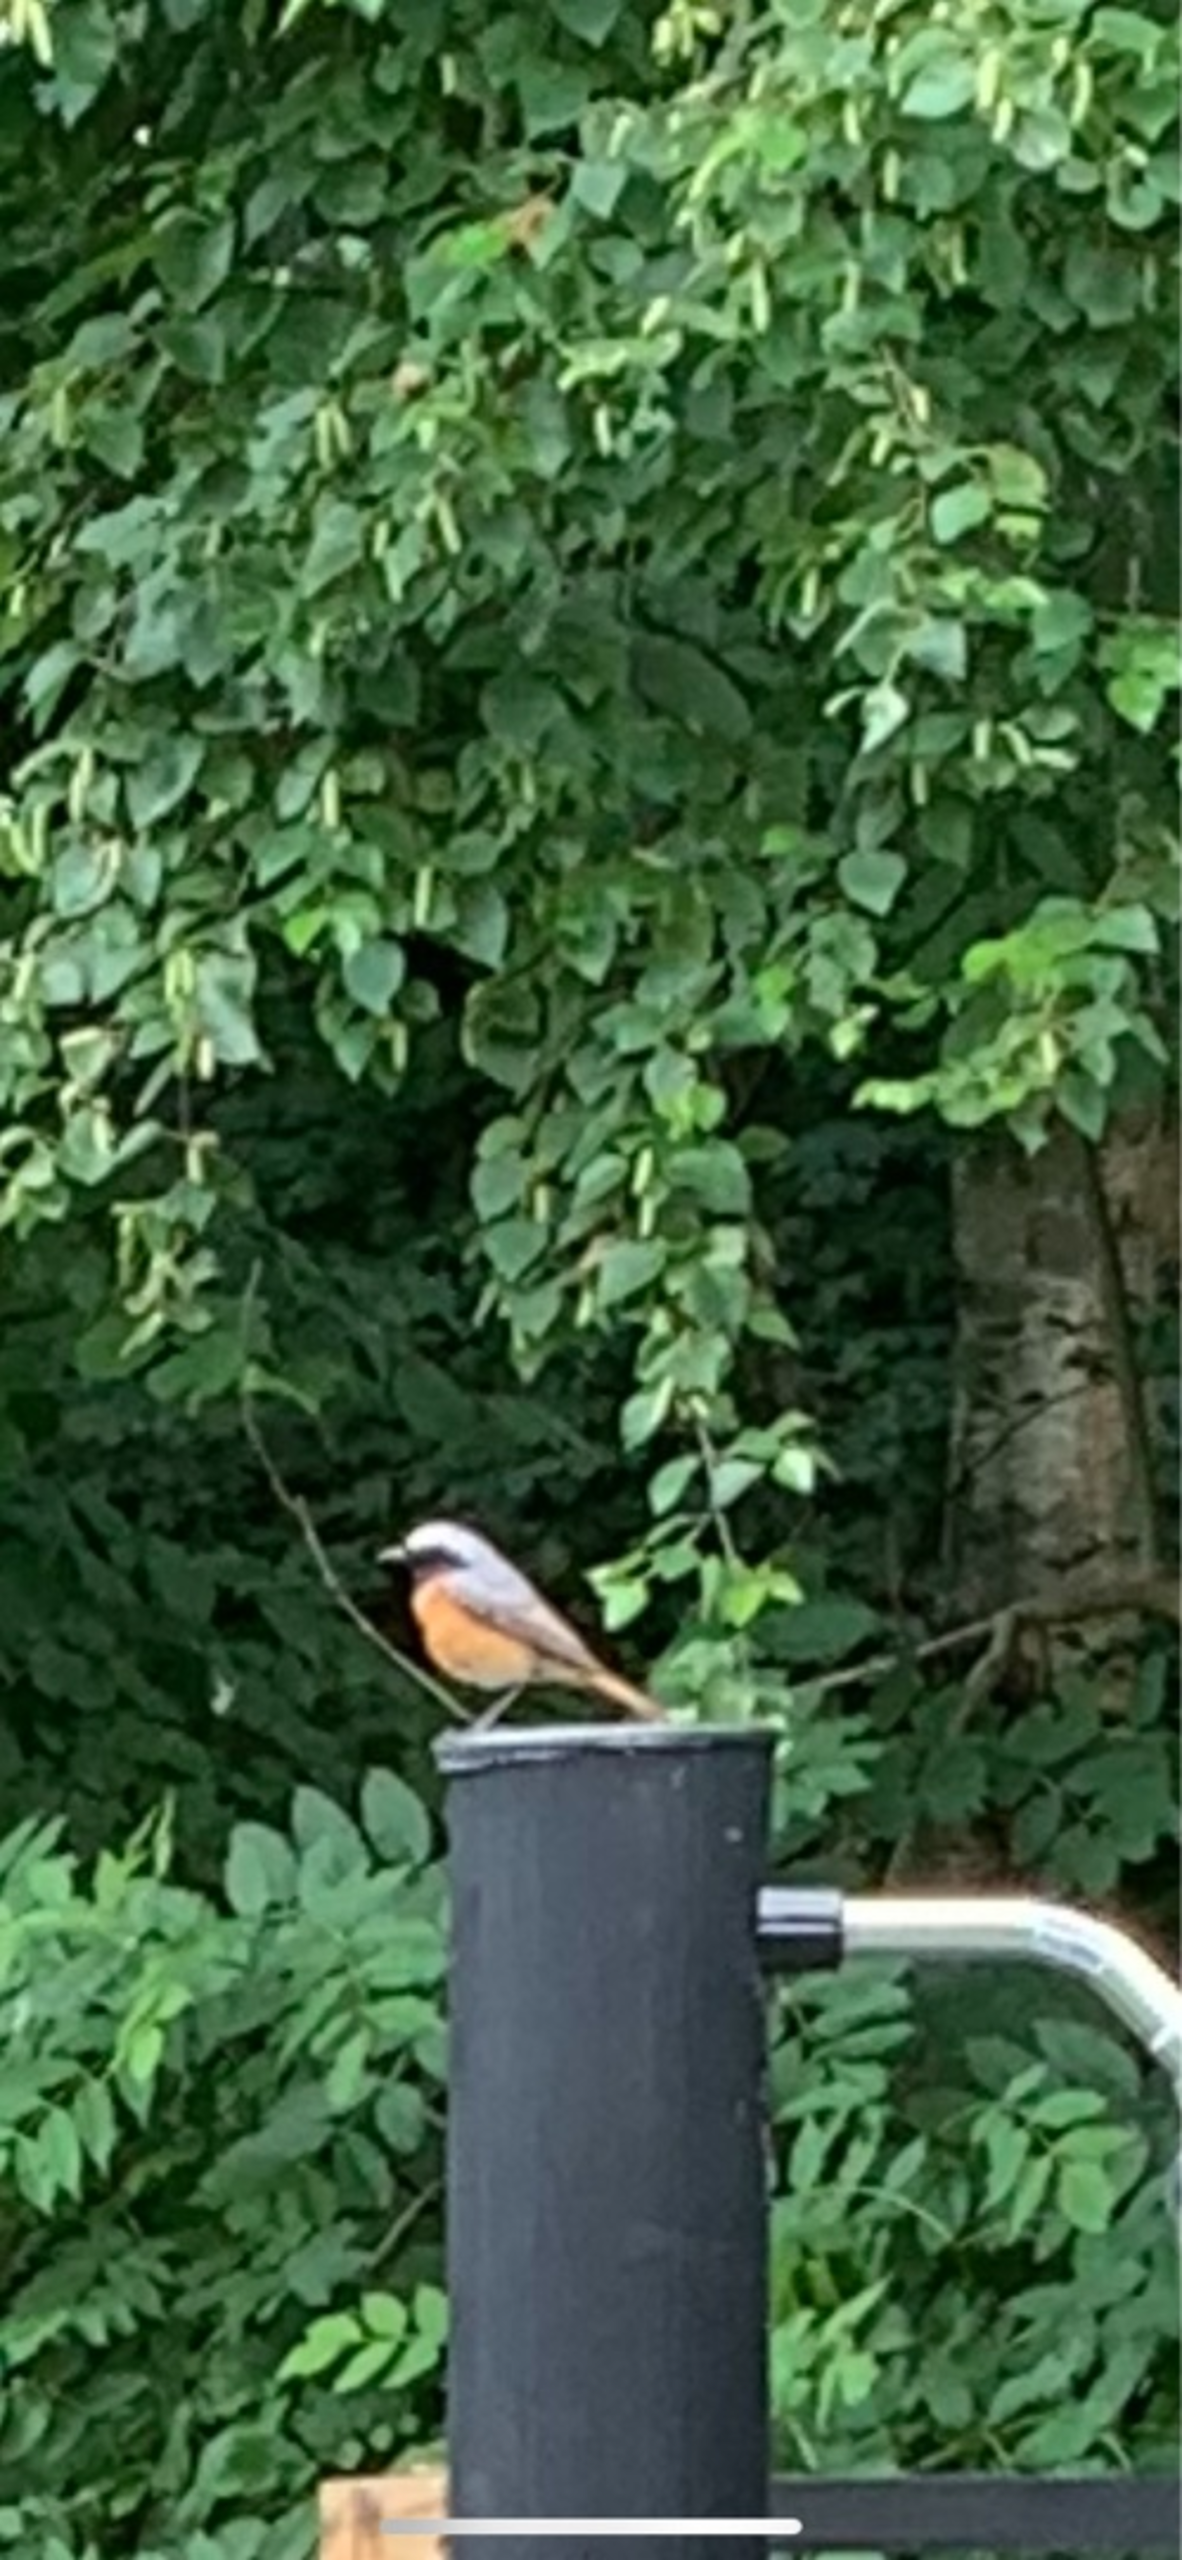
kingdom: Animalia
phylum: Chordata
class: Aves
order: Passeriformes
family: Muscicapidae
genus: Phoenicurus
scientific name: Phoenicurus phoenicurus
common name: Rødstjert
